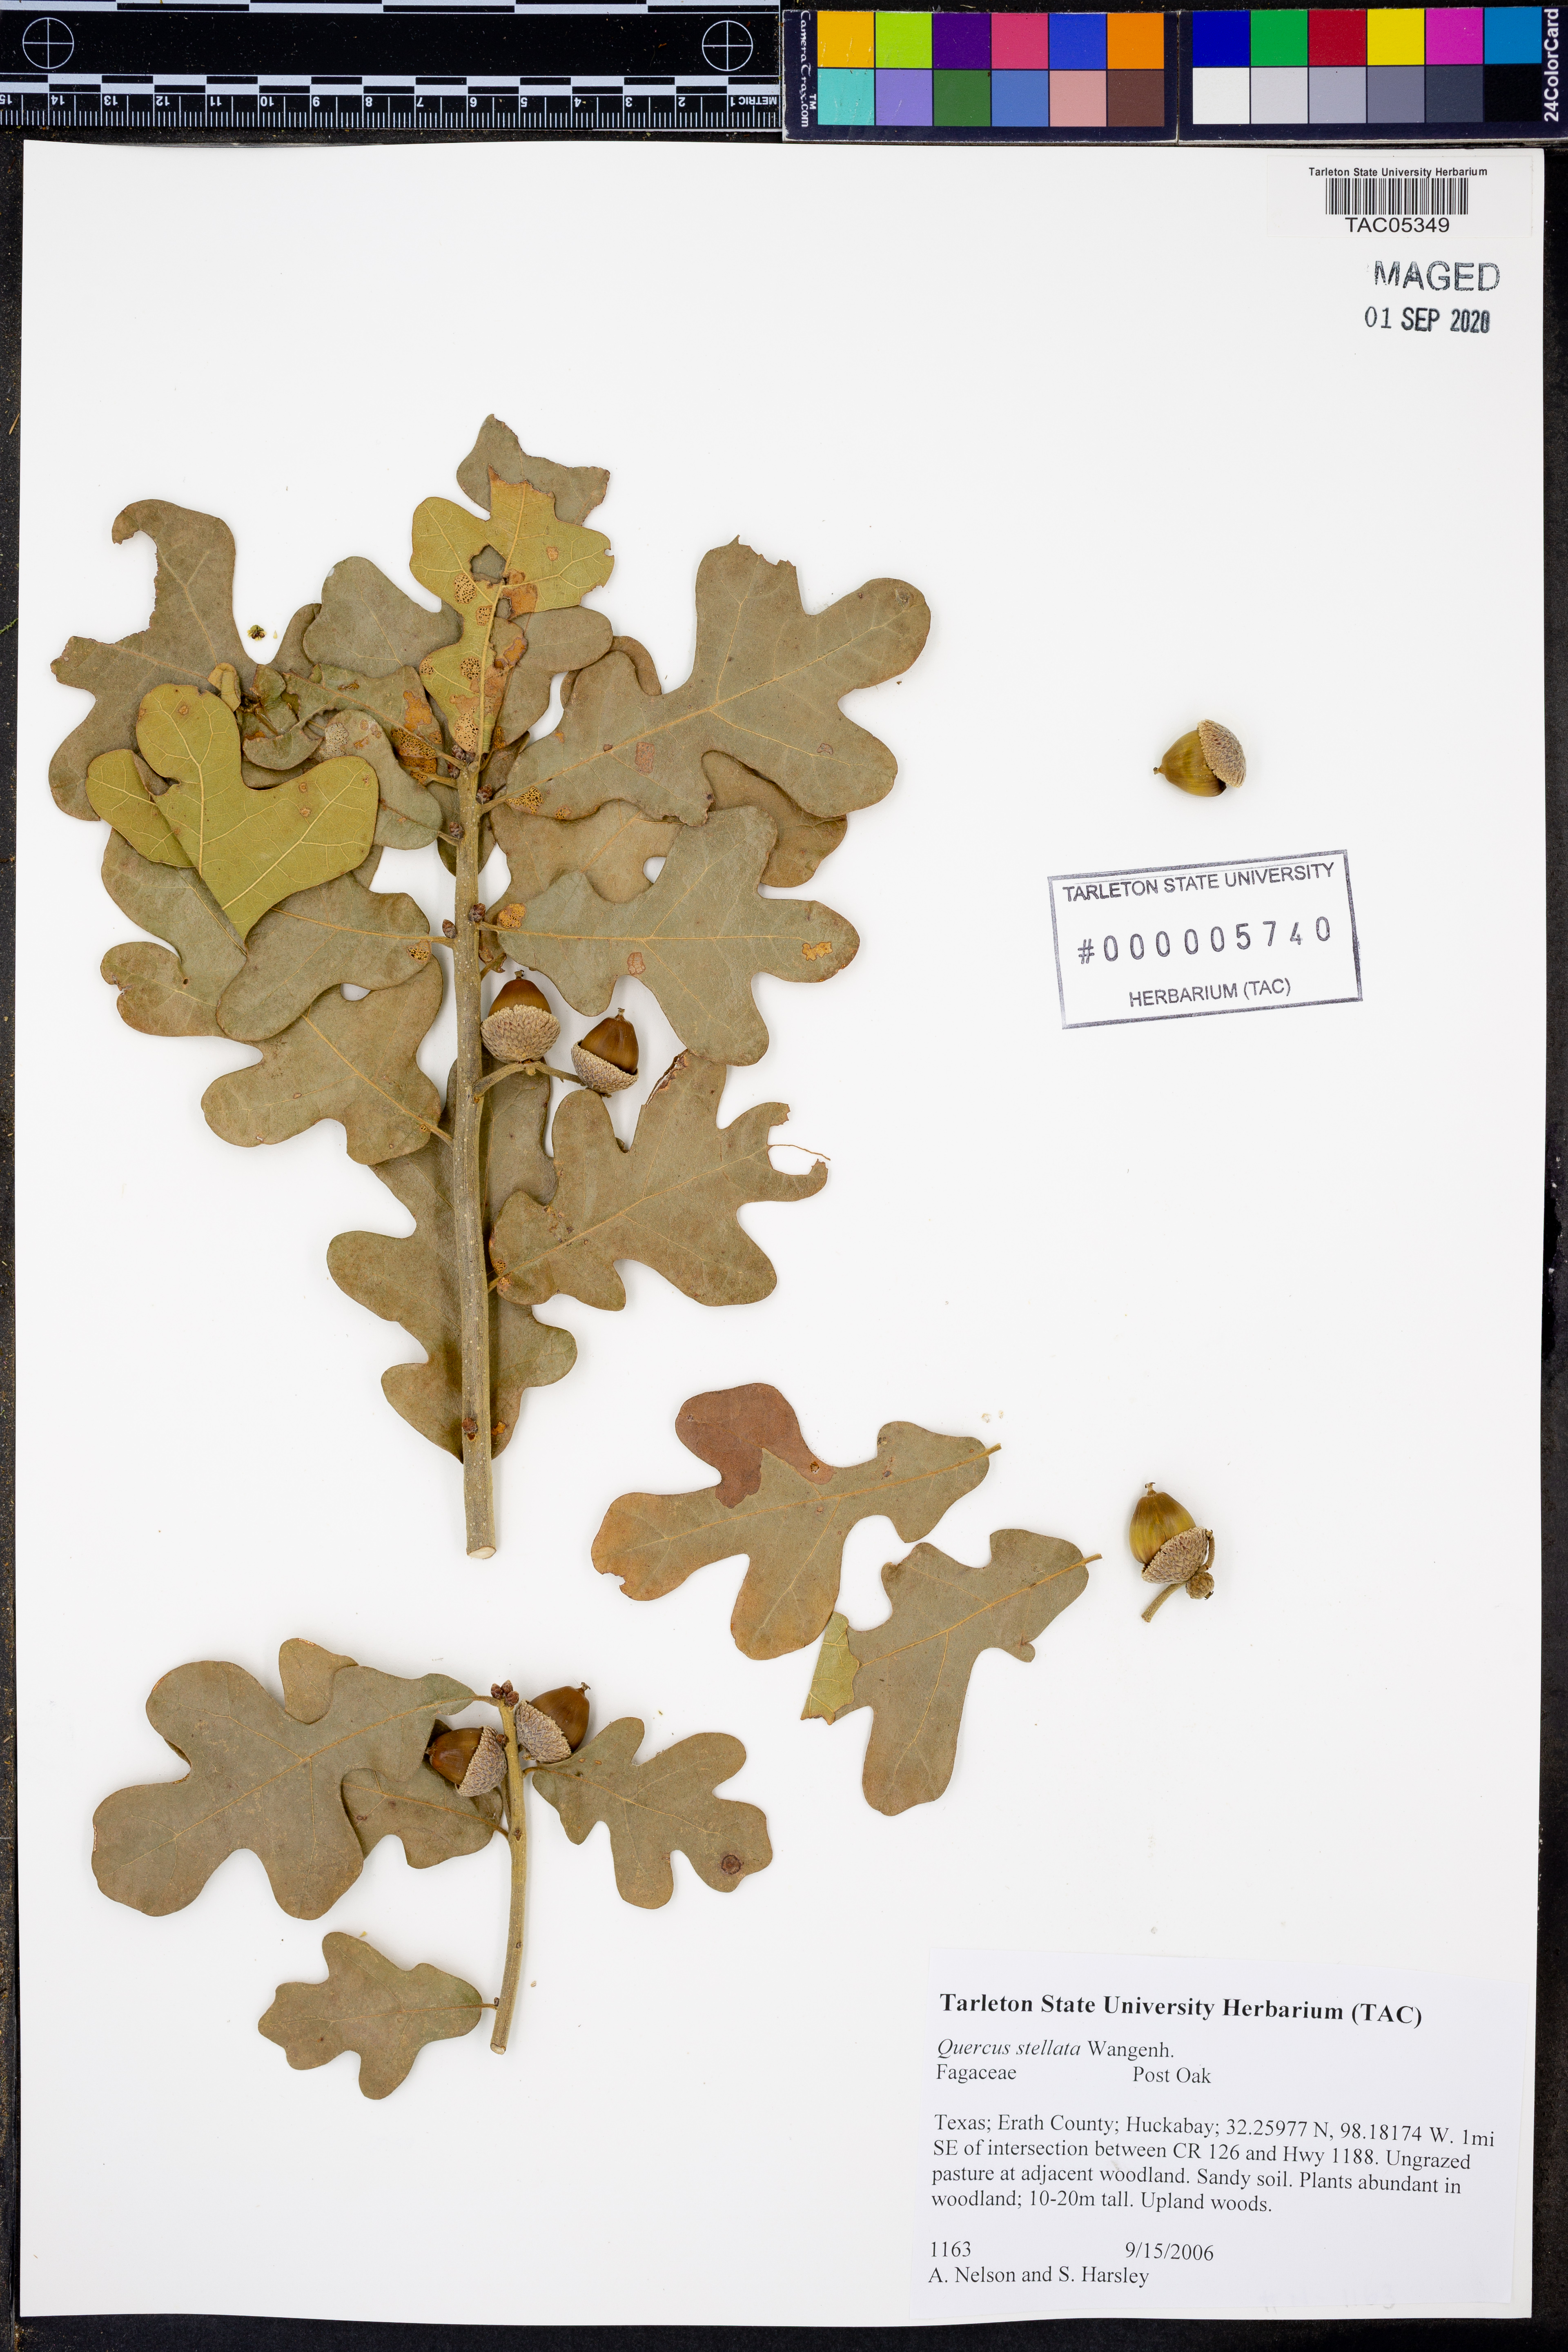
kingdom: Plantae
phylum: Tracheophyta
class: Magnoliopsida
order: Fagales
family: Fagaceae
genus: Quercus
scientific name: Quercus stellata
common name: Post oak
